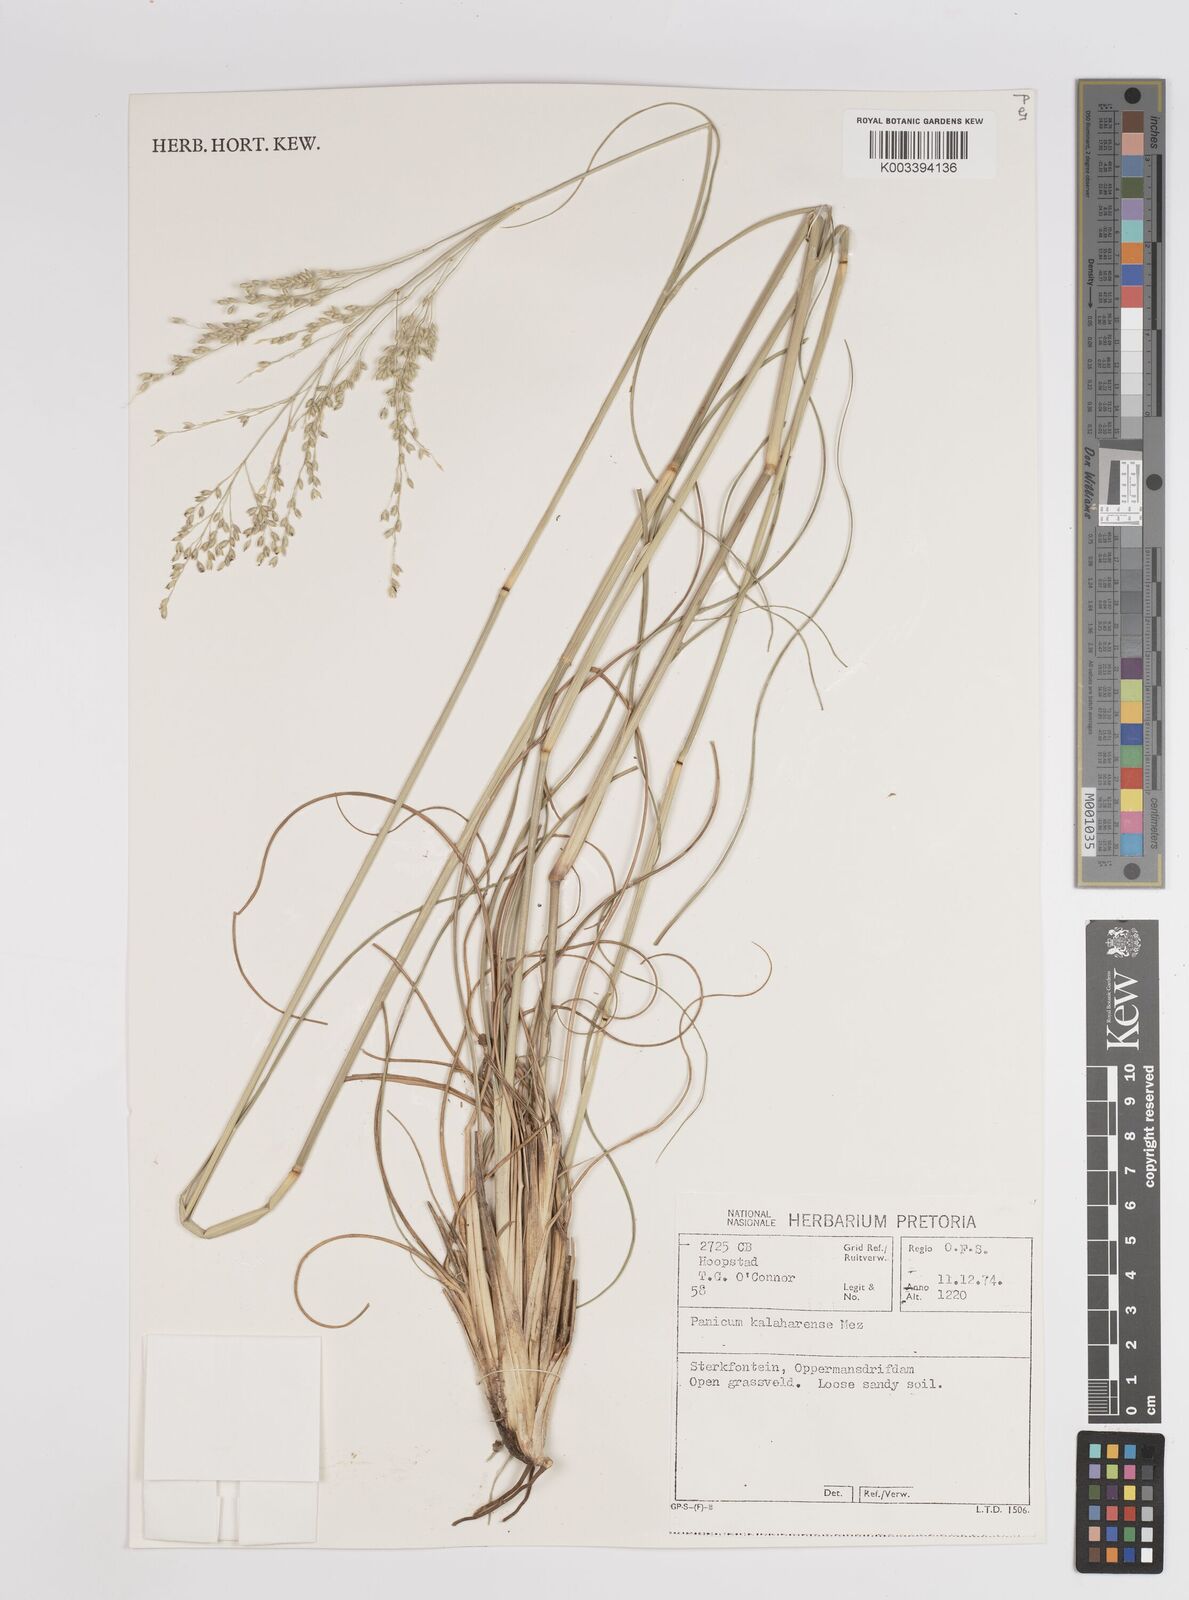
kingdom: Plantae
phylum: Tracheophyta
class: Liliopsida
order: Poales
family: Poaceae
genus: Panicum
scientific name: Panicum kalaharense
